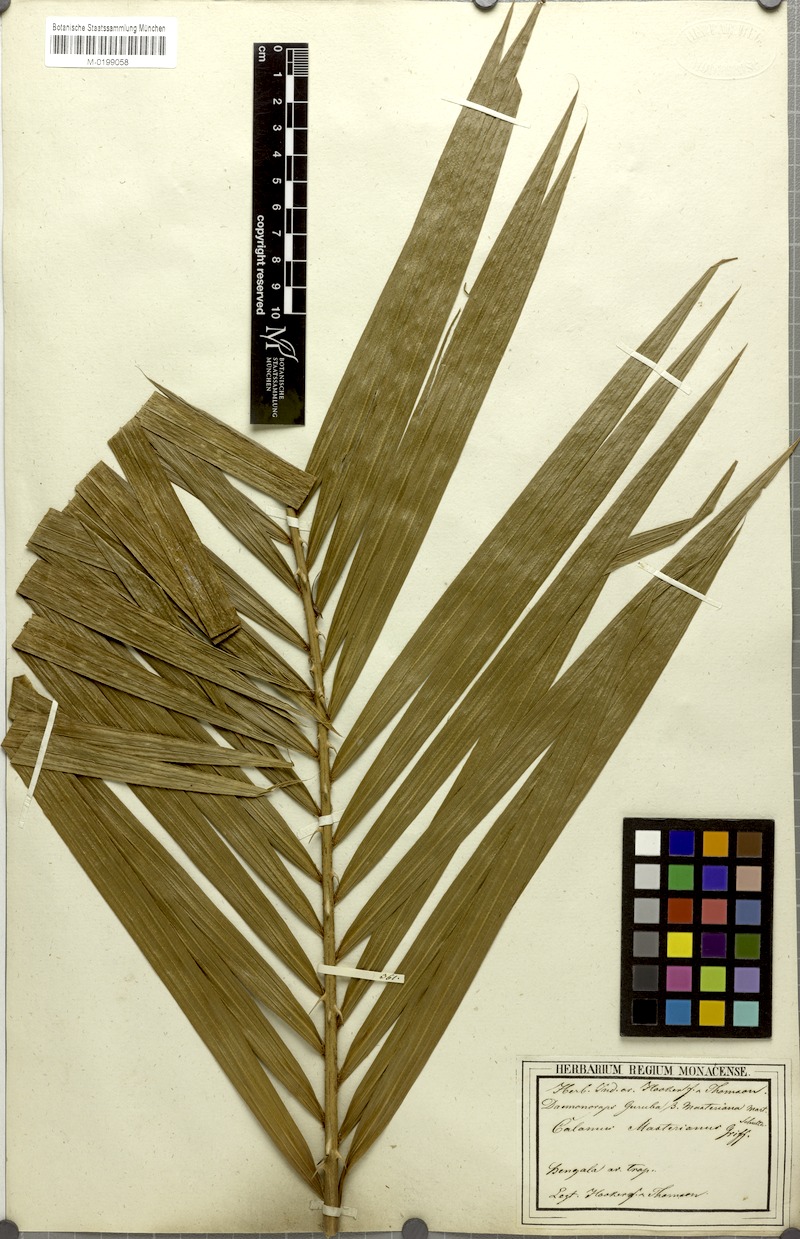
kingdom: Plantae
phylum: Tracheophyta
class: Liliopsida
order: Arecales
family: Arecaceae
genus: Calamus
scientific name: Calamus guruba
